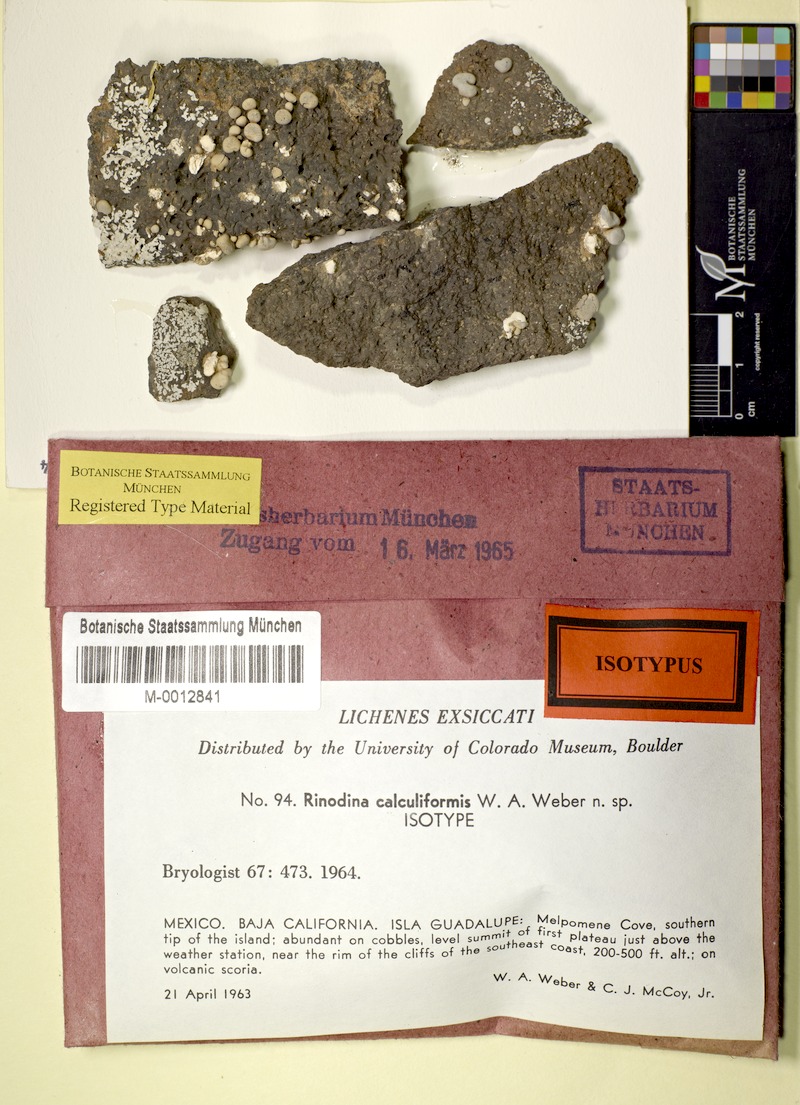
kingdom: Fungi
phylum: Ascomycota
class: Lecanoromycetes
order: Caliciales
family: Physciaceae
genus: Mobergia
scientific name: Mobergia calculiformis
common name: Coastal popcorn lichen
